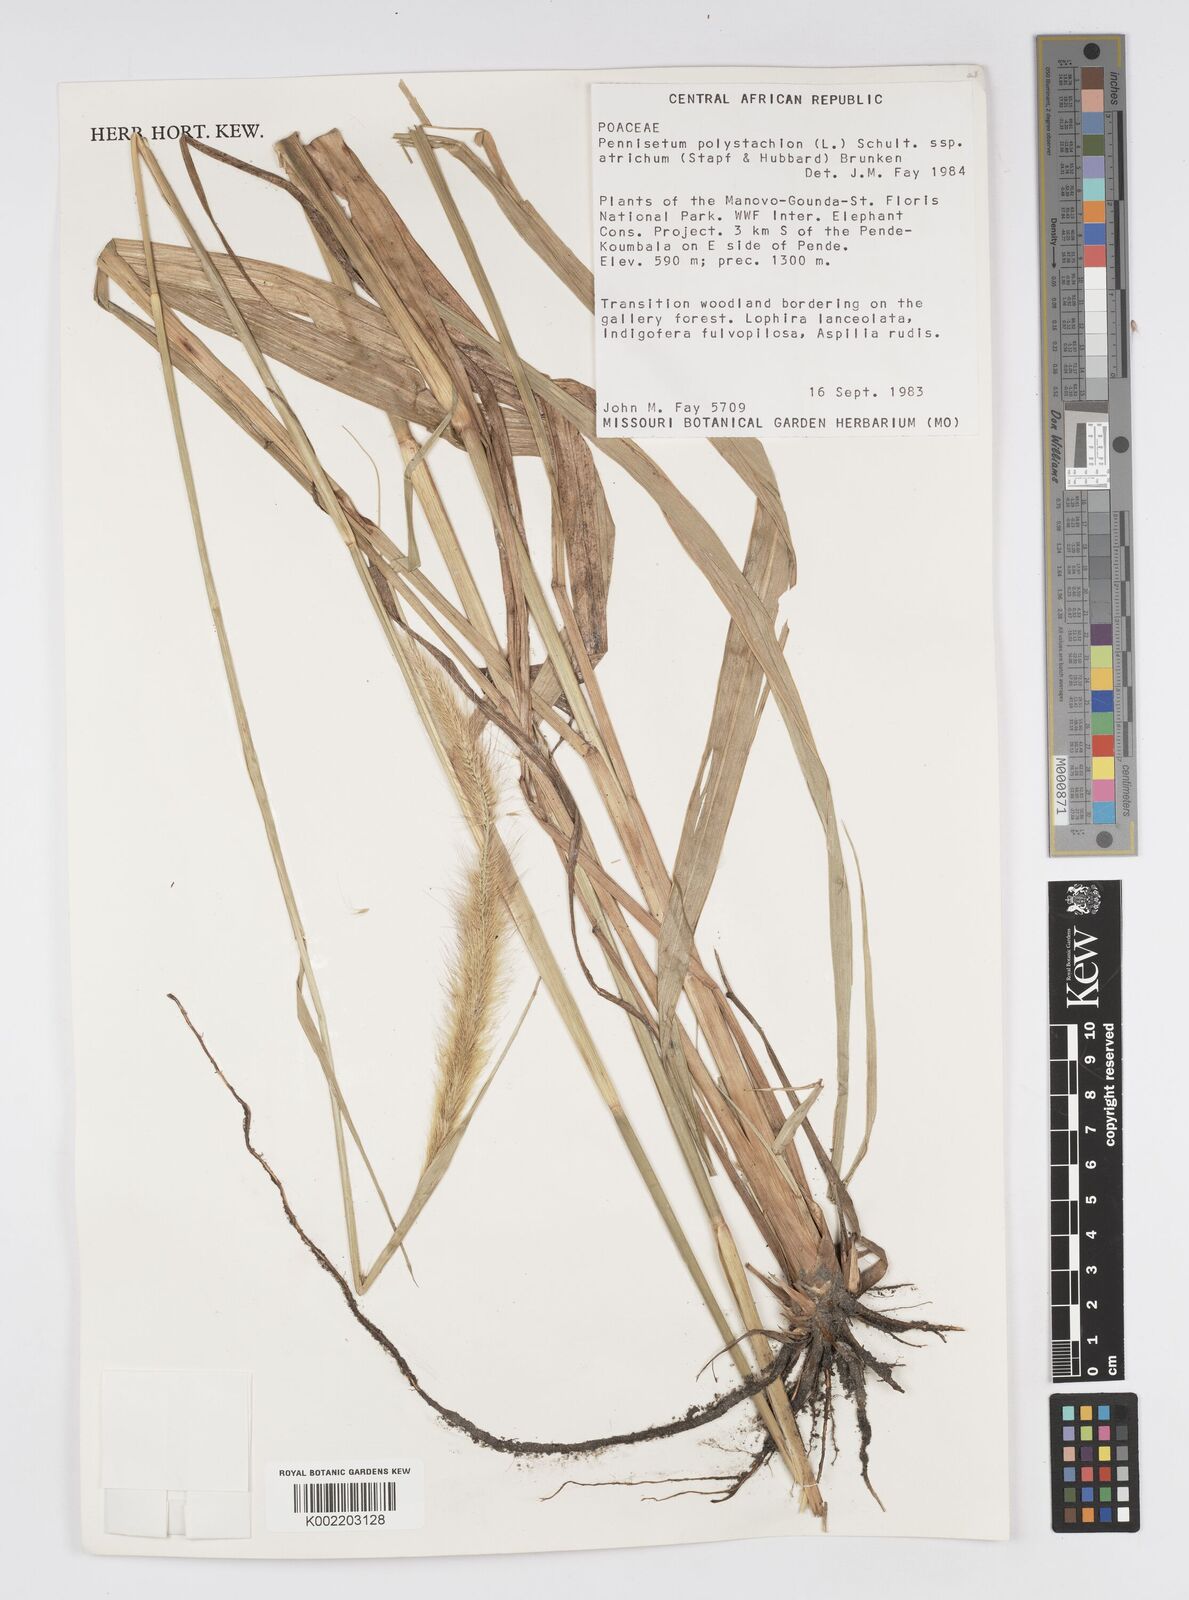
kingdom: Plantae
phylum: Tracheophyta
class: Liliopsida
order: Poales
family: Poaceae
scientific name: Poaceae
